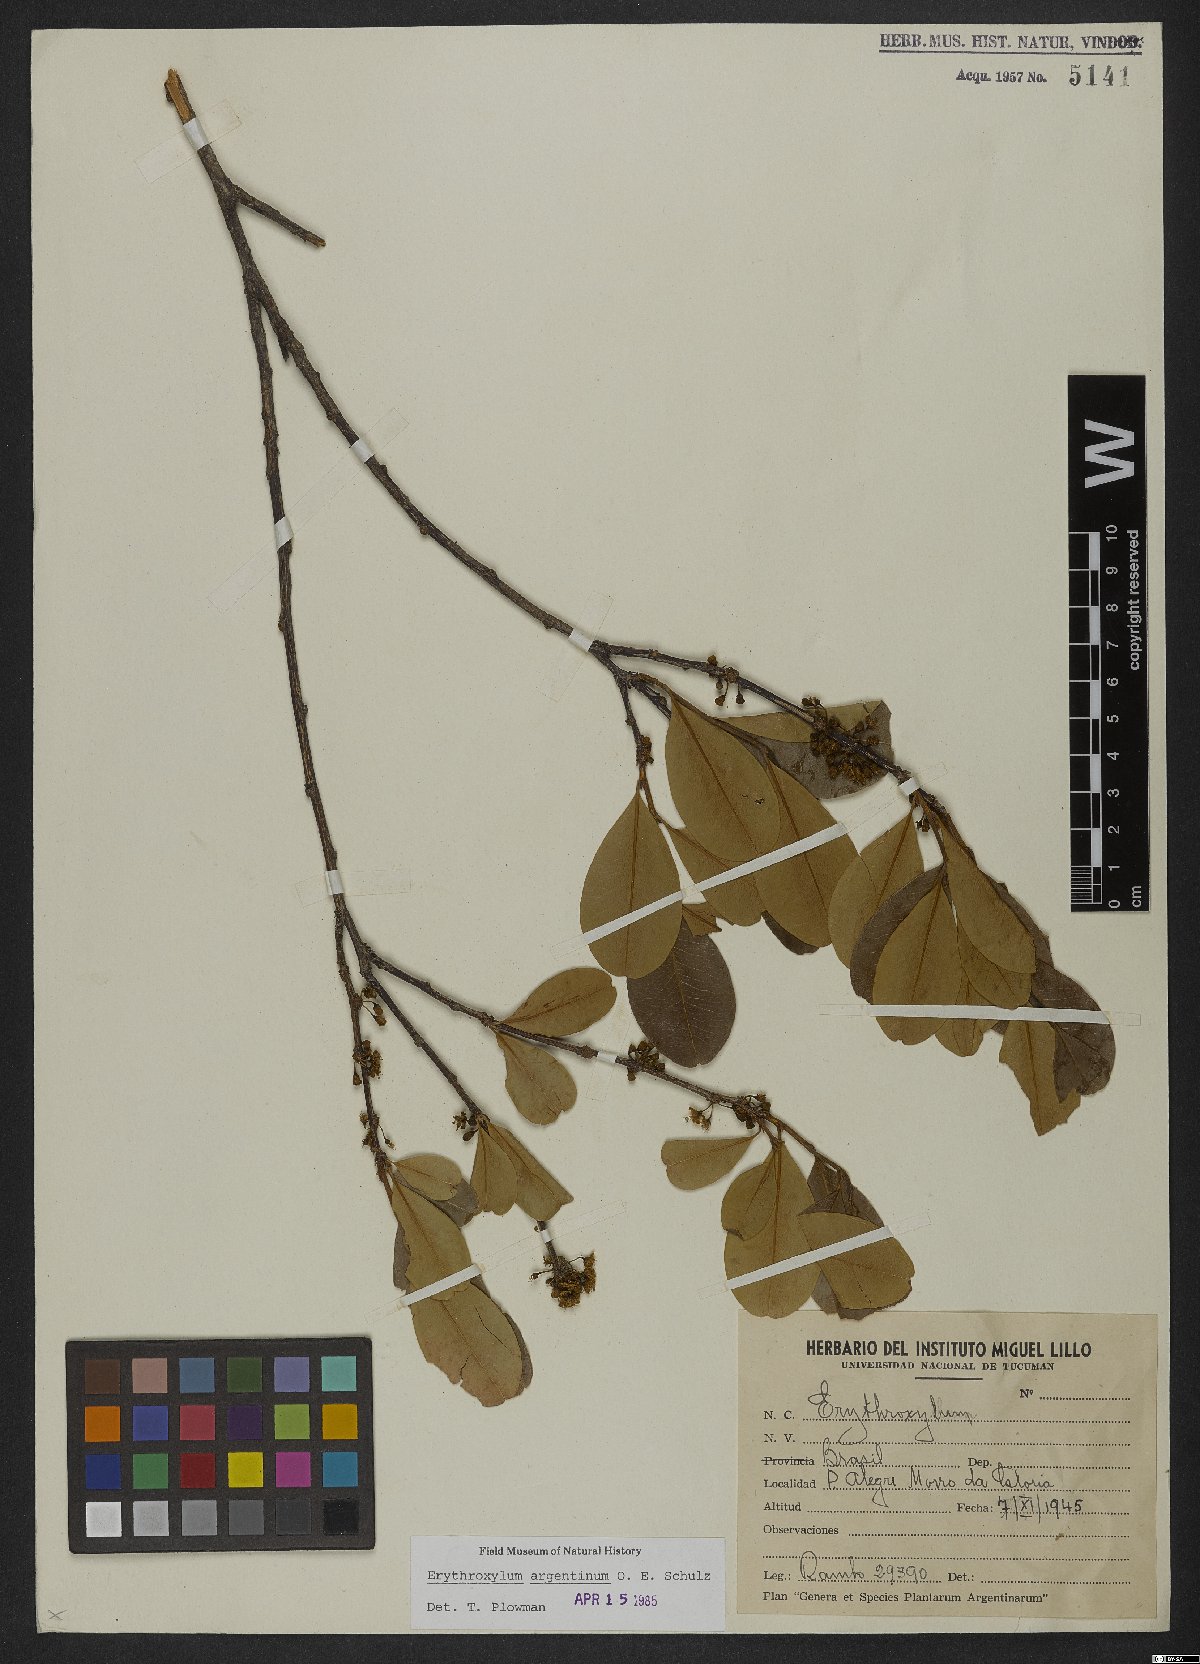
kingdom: Plantae
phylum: Tracheophyta
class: Magnoliopsida
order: Malpighiales
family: Erythroxylaceae
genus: Erythroxylum
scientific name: Erythroxylum argentinum
